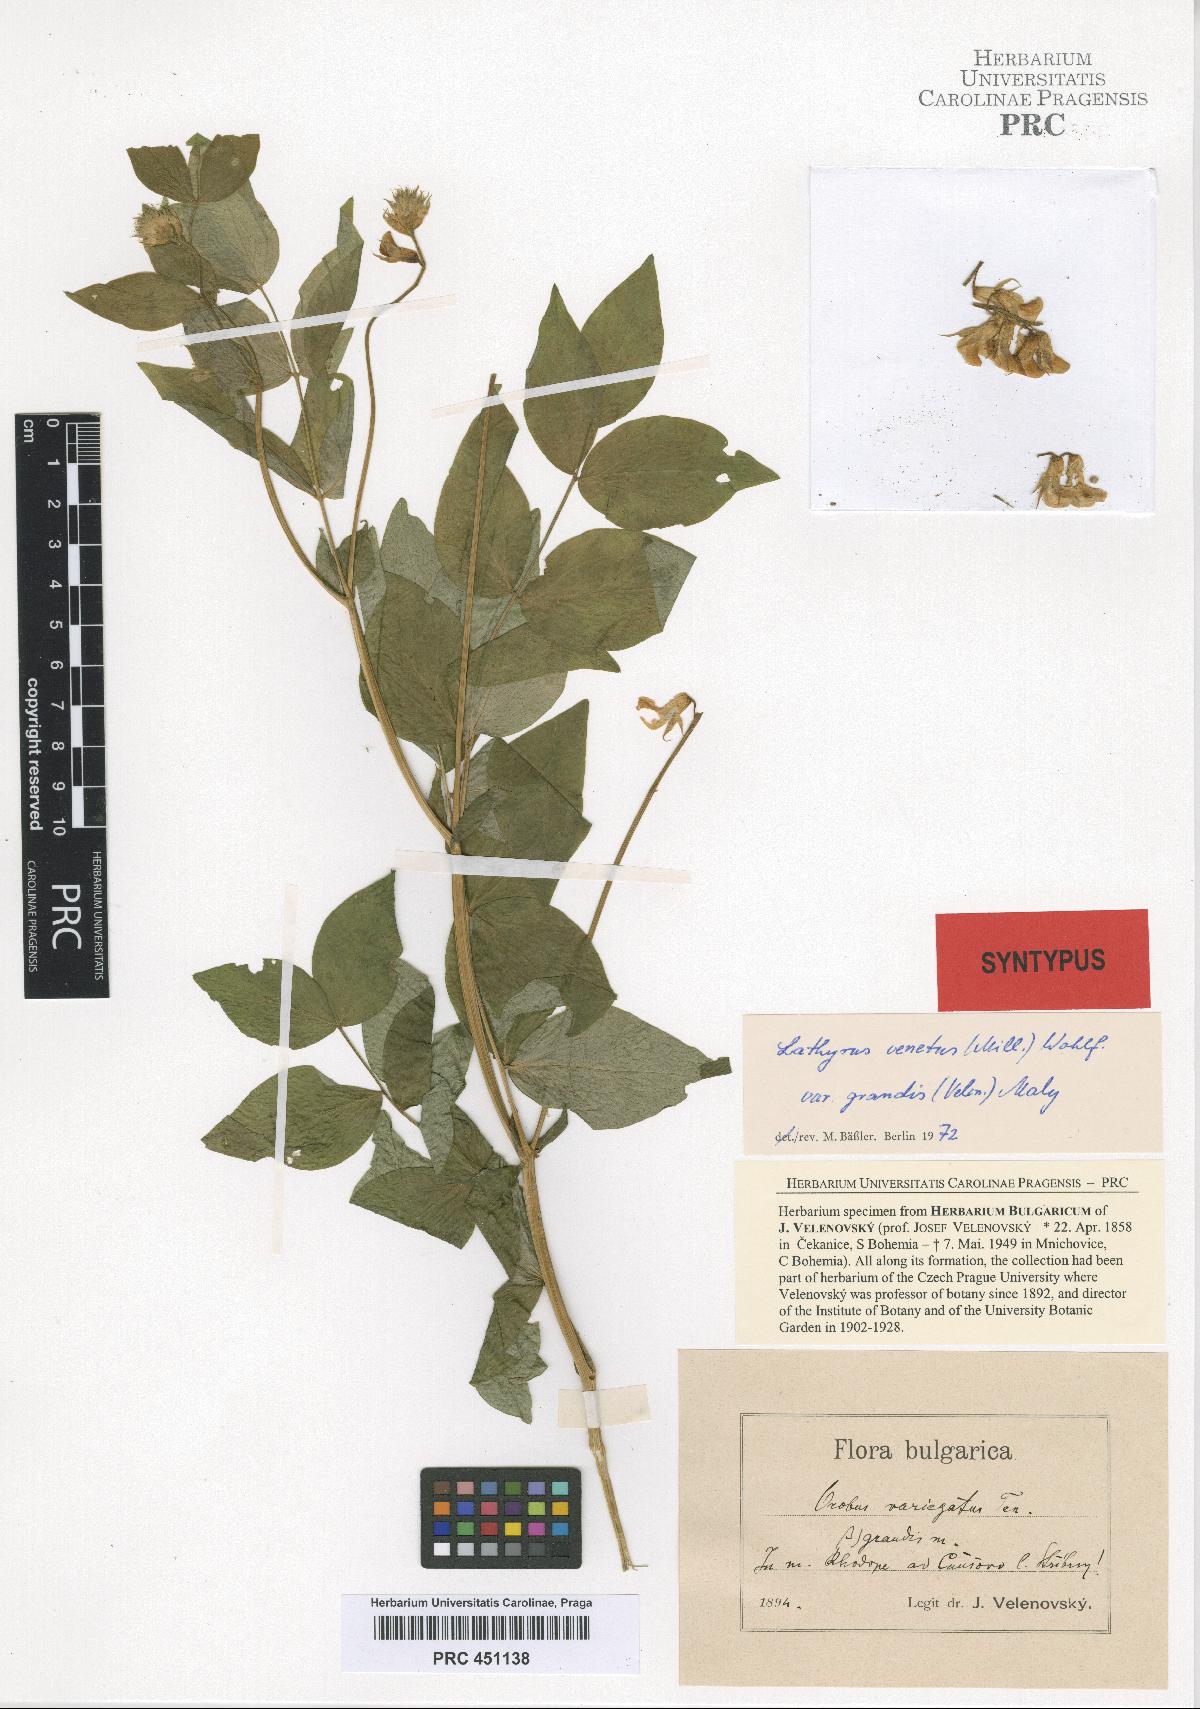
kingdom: Plantae
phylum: Tracheophyta
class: Magnoliopsida
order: Fabales
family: Fabaceae
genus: Lathyrus
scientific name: Lathyrus venetus
